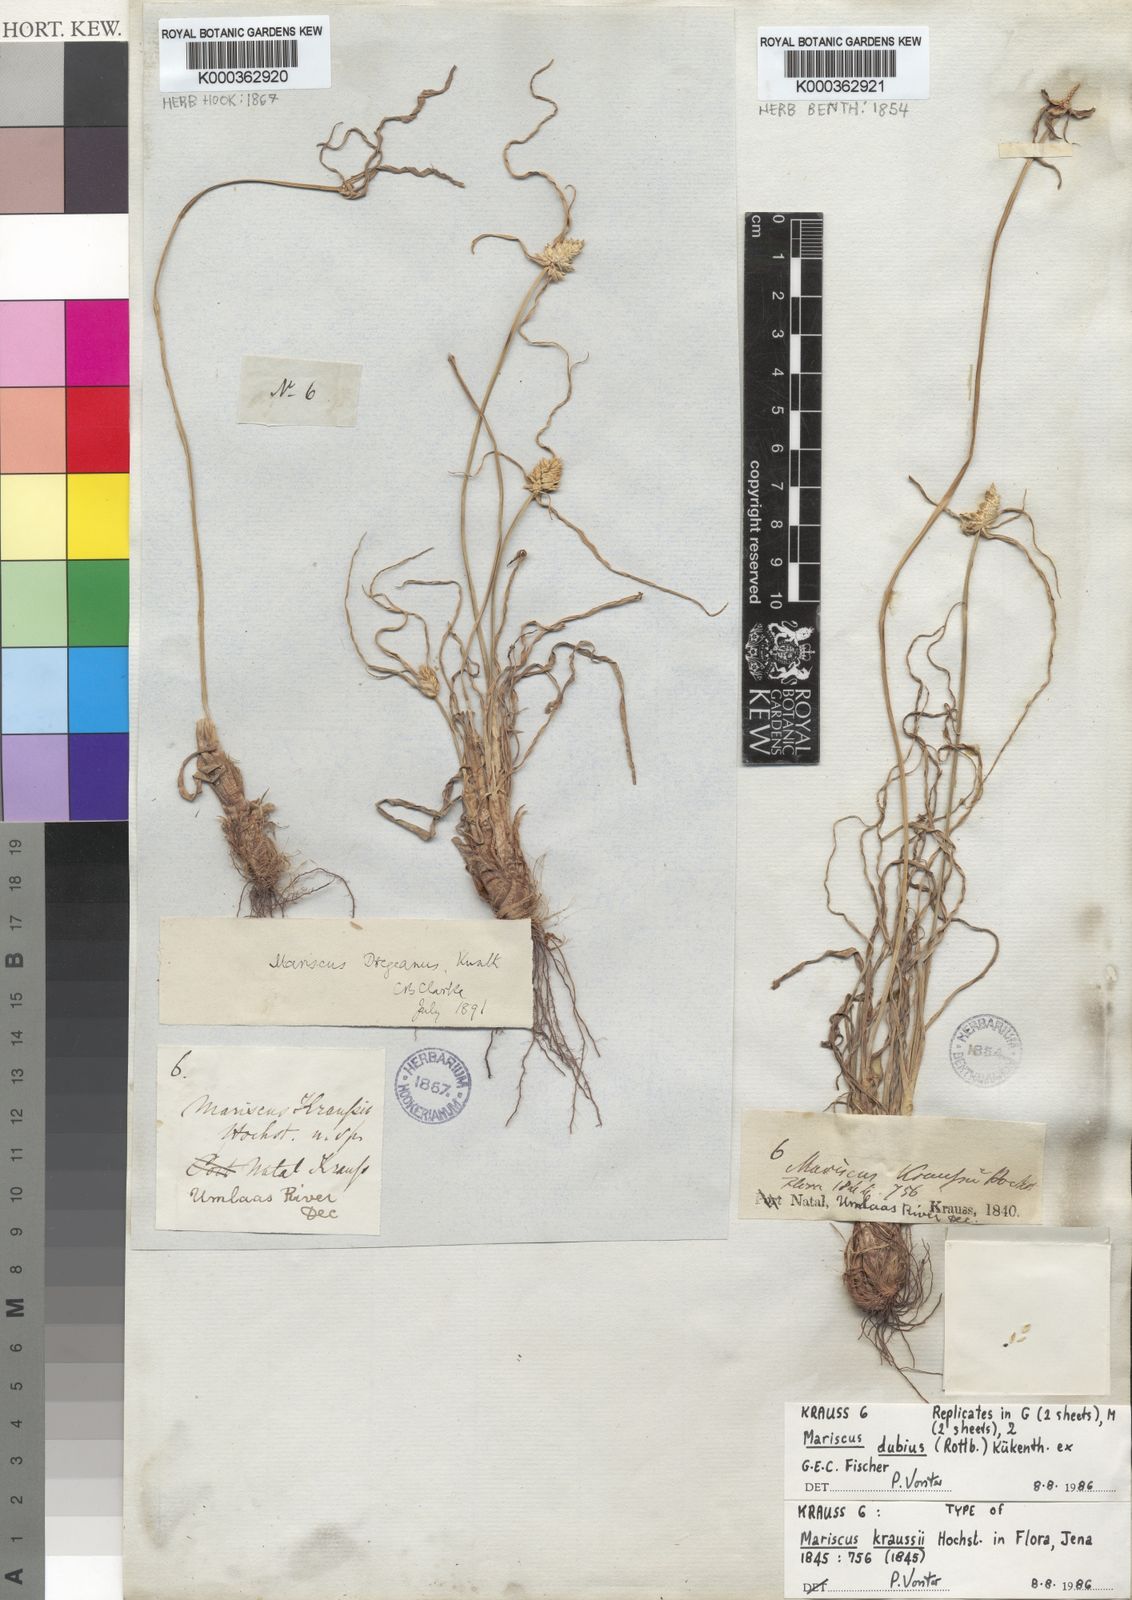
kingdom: Plantae
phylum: Tracheophyta
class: Liliopsida
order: Poales
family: Cyperaceae
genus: Cyperus
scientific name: Cyperus dubius
